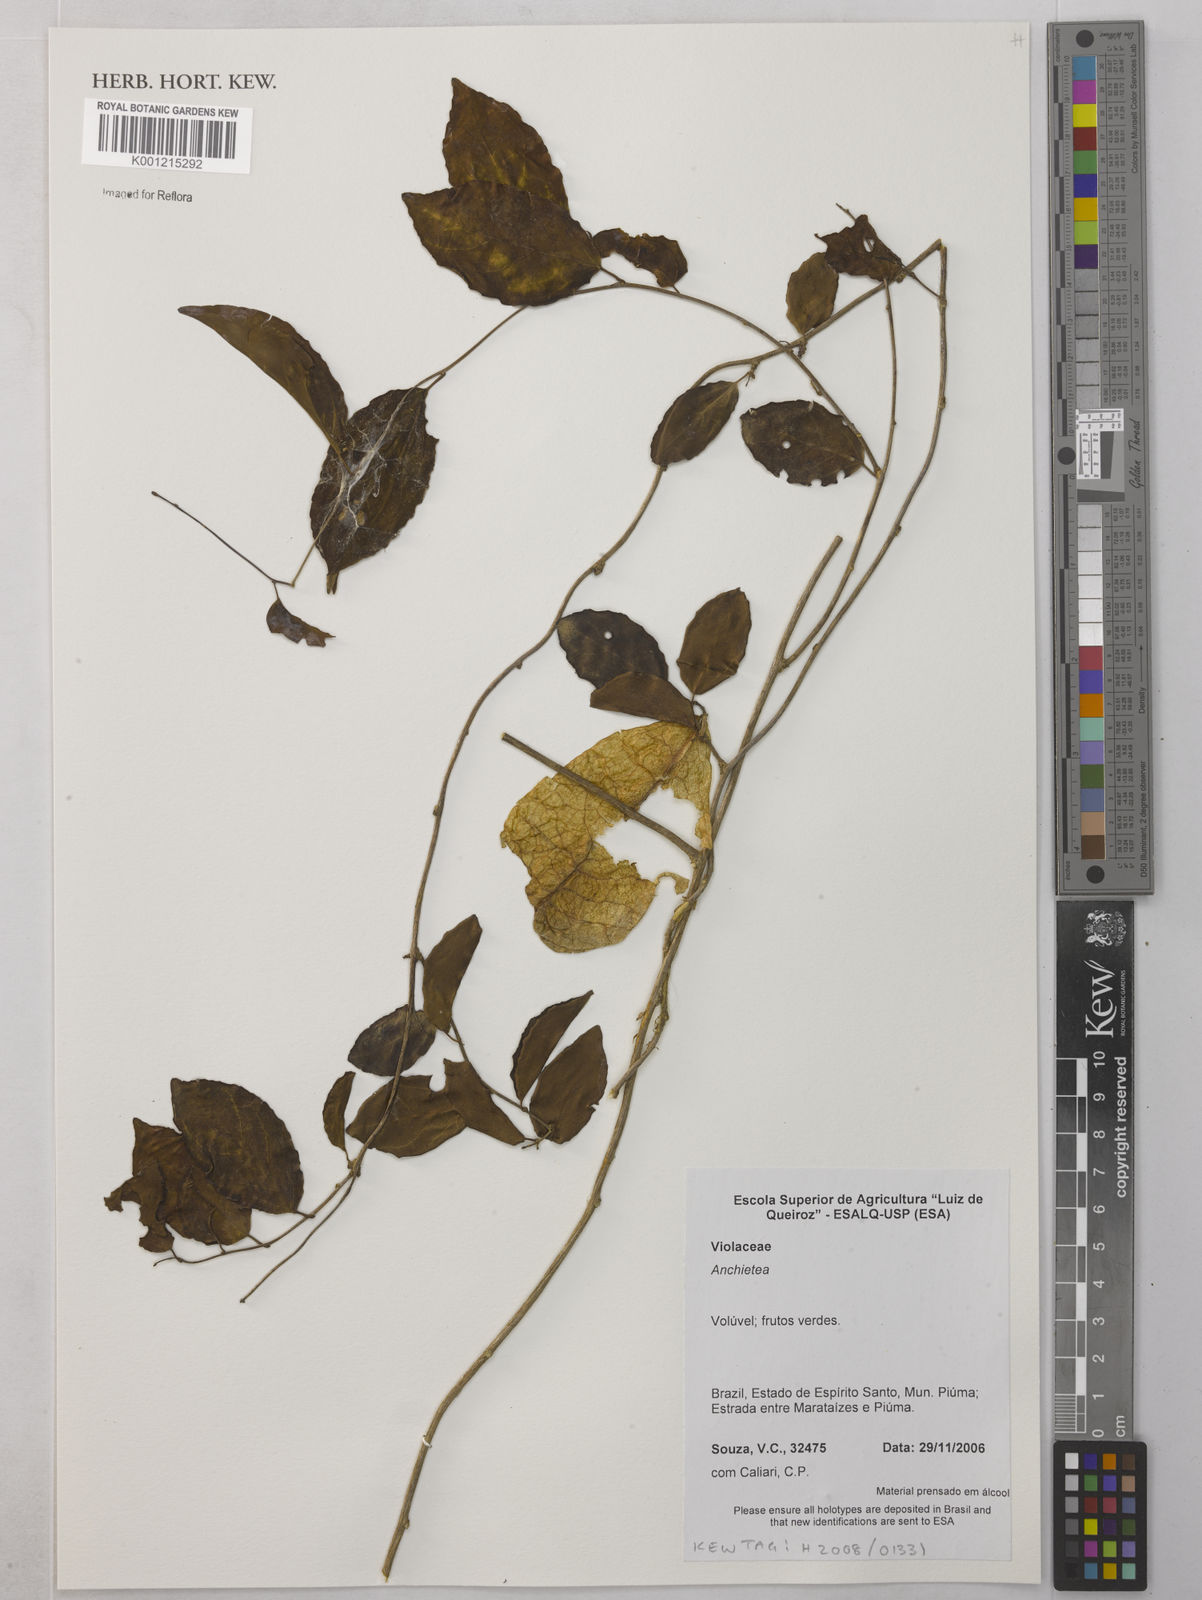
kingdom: Plantae
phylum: Tracheophyta
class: Magnoliopsida
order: Malpighiales
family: Violaceae
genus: Anchietea
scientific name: Anchietea
